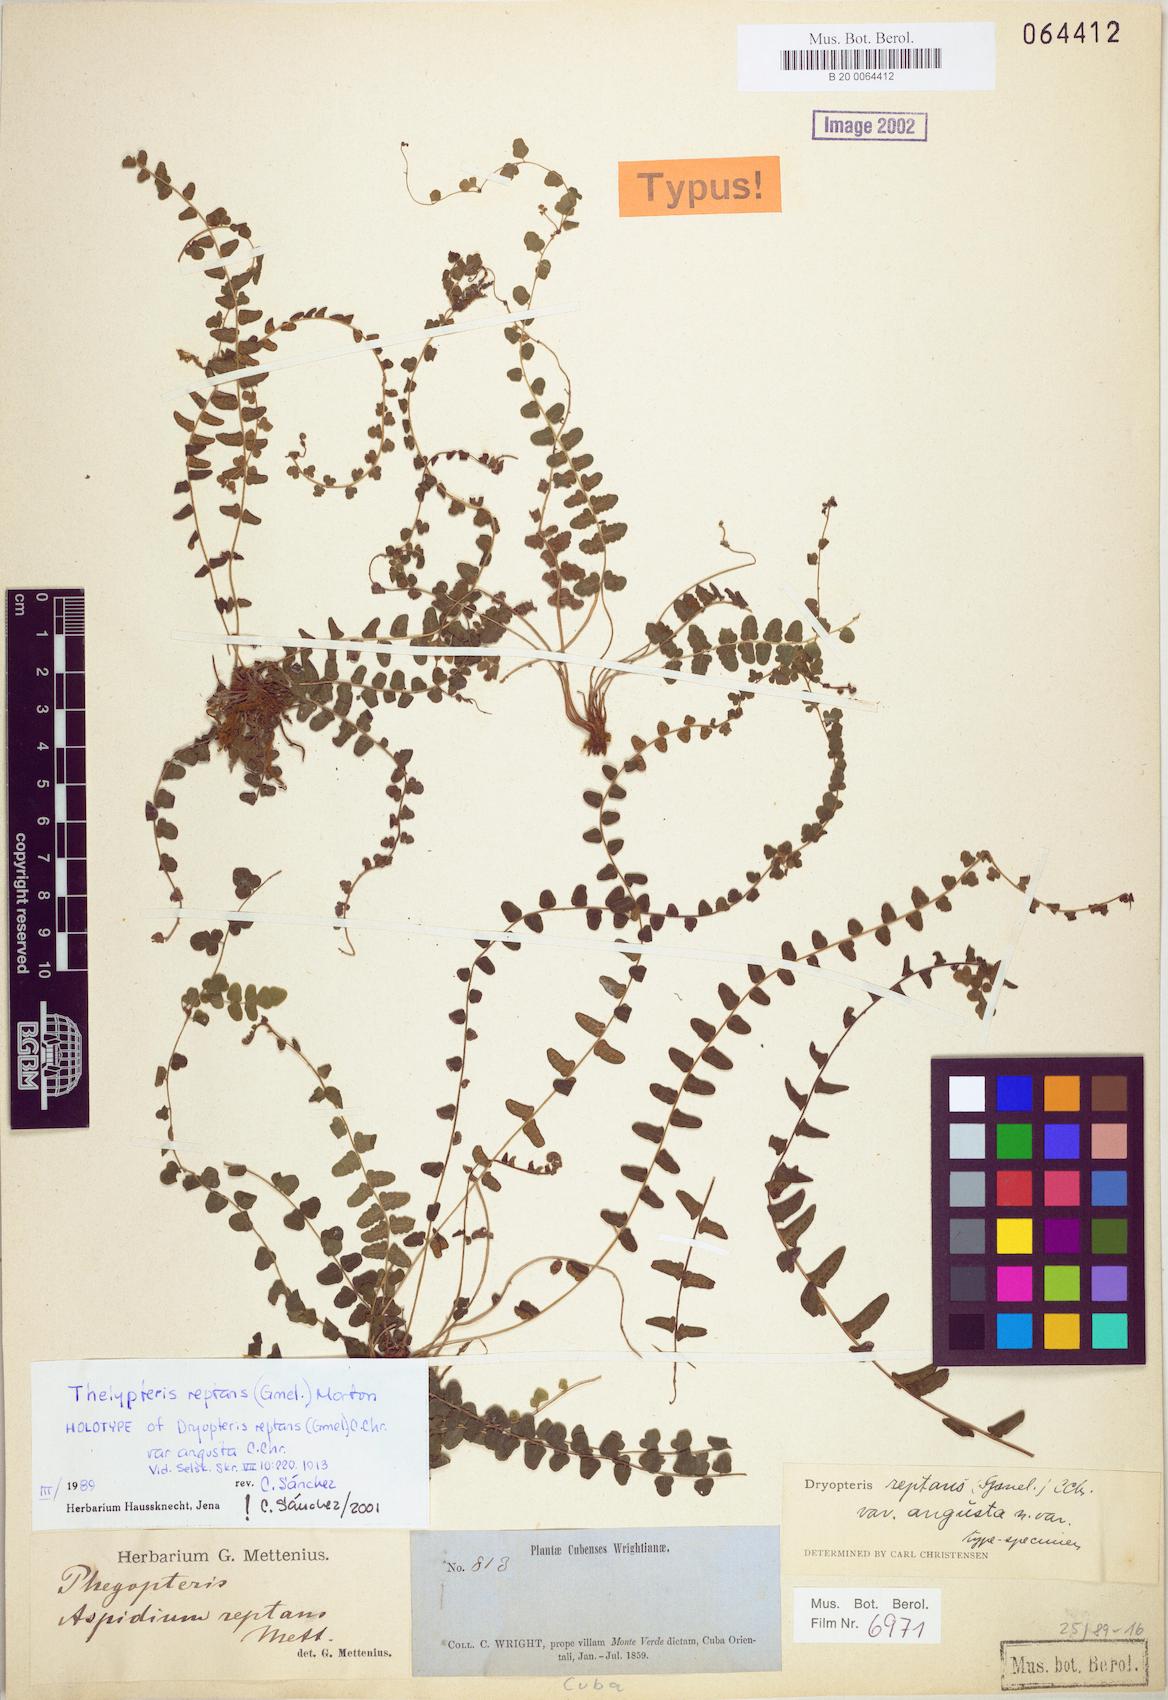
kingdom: Plantae
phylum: Tracheophyta
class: Polypodiopsida
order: Polypodiales
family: Thelypteridaceae
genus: Goniopteris
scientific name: Goniopteris reptans
